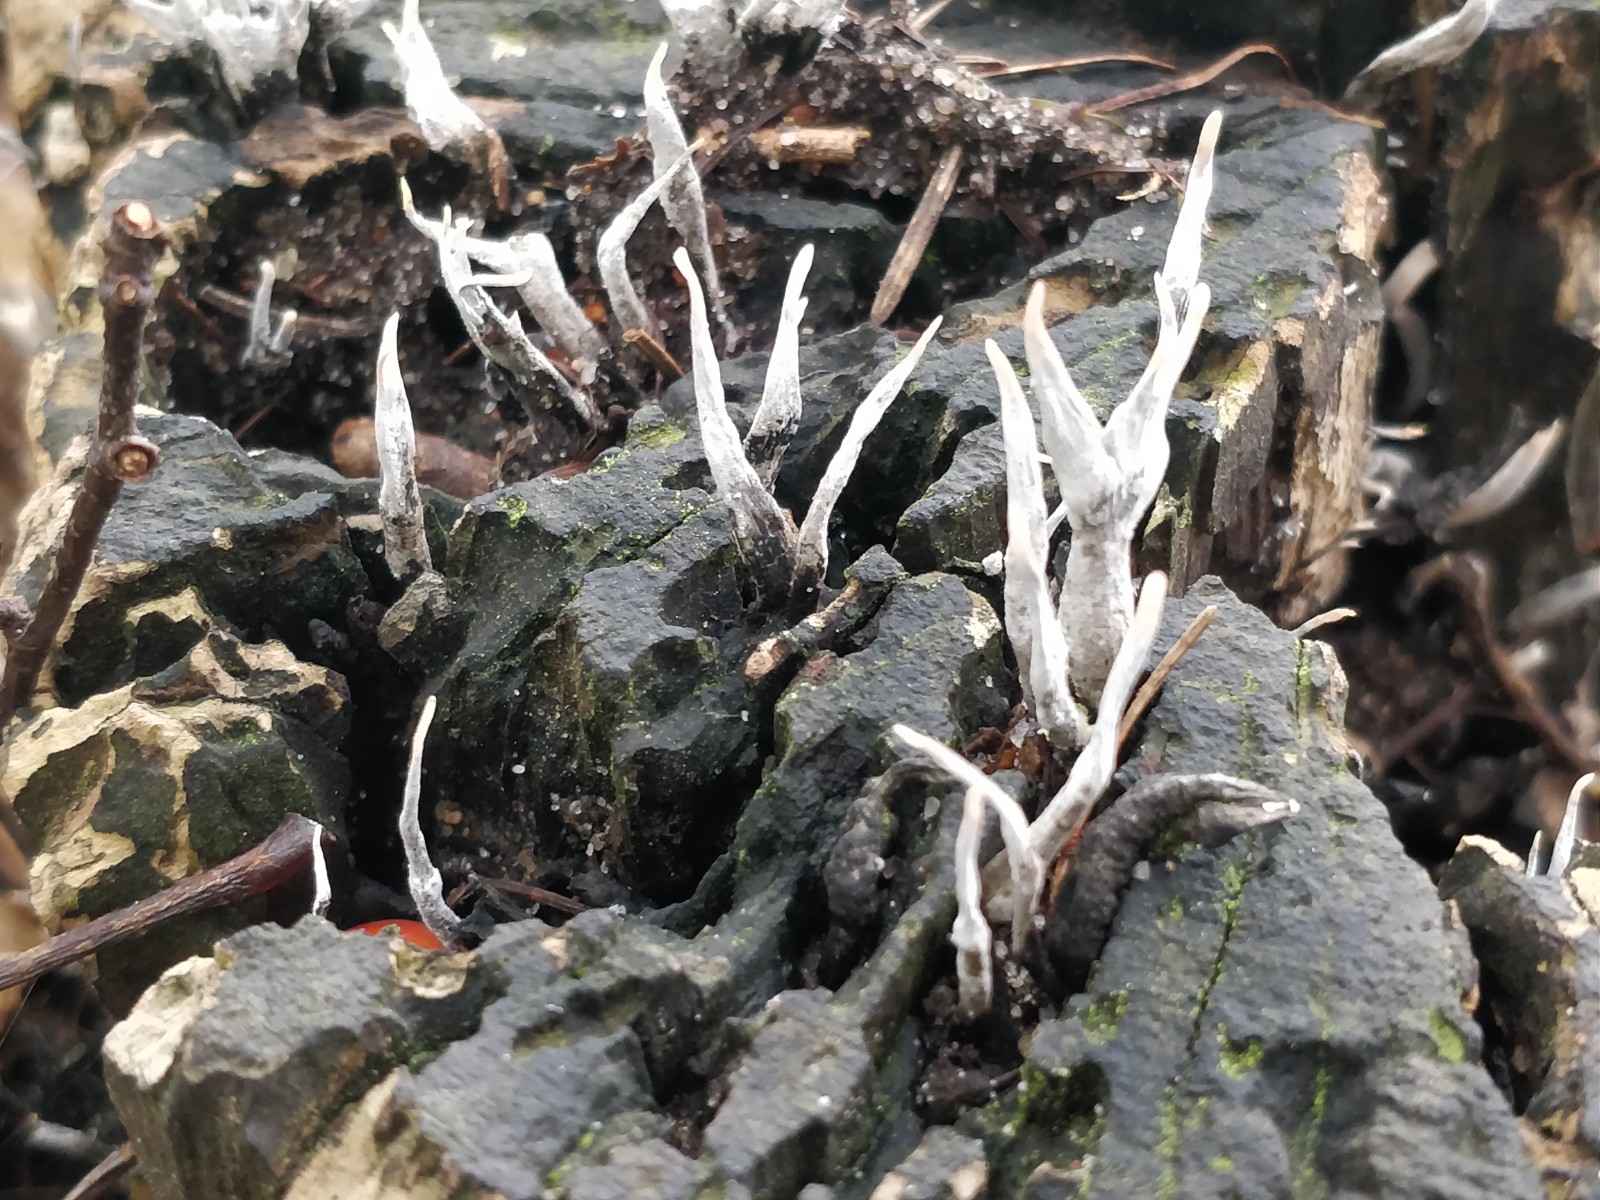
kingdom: Fungi
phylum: Ascomycota
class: Sordariomycetes
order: Xylariales
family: Xylariaceae
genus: Xylaria
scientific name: Xylaria hypoxylon
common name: grenet stødsvamp
